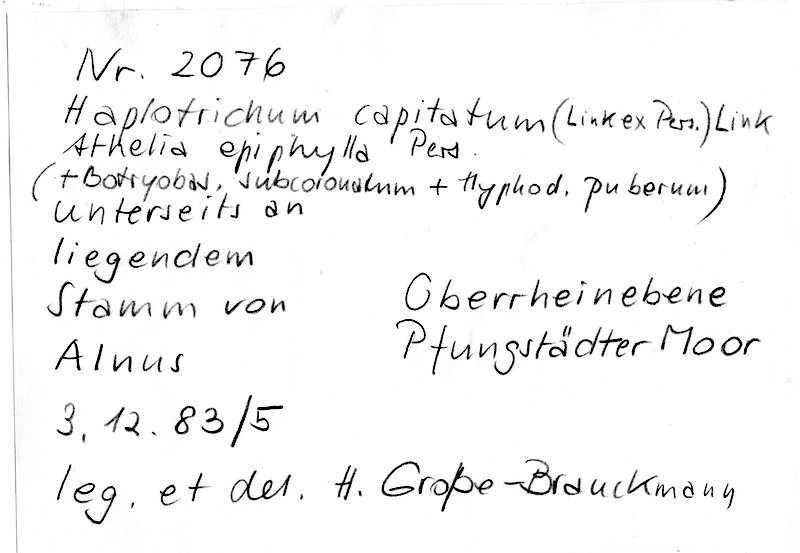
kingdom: Fungi
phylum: Basidiomycota
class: Agaricomycetes
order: Cantharellales
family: Botryobasidiaceae
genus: Botryobasidium
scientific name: Botryobasidium candicans
